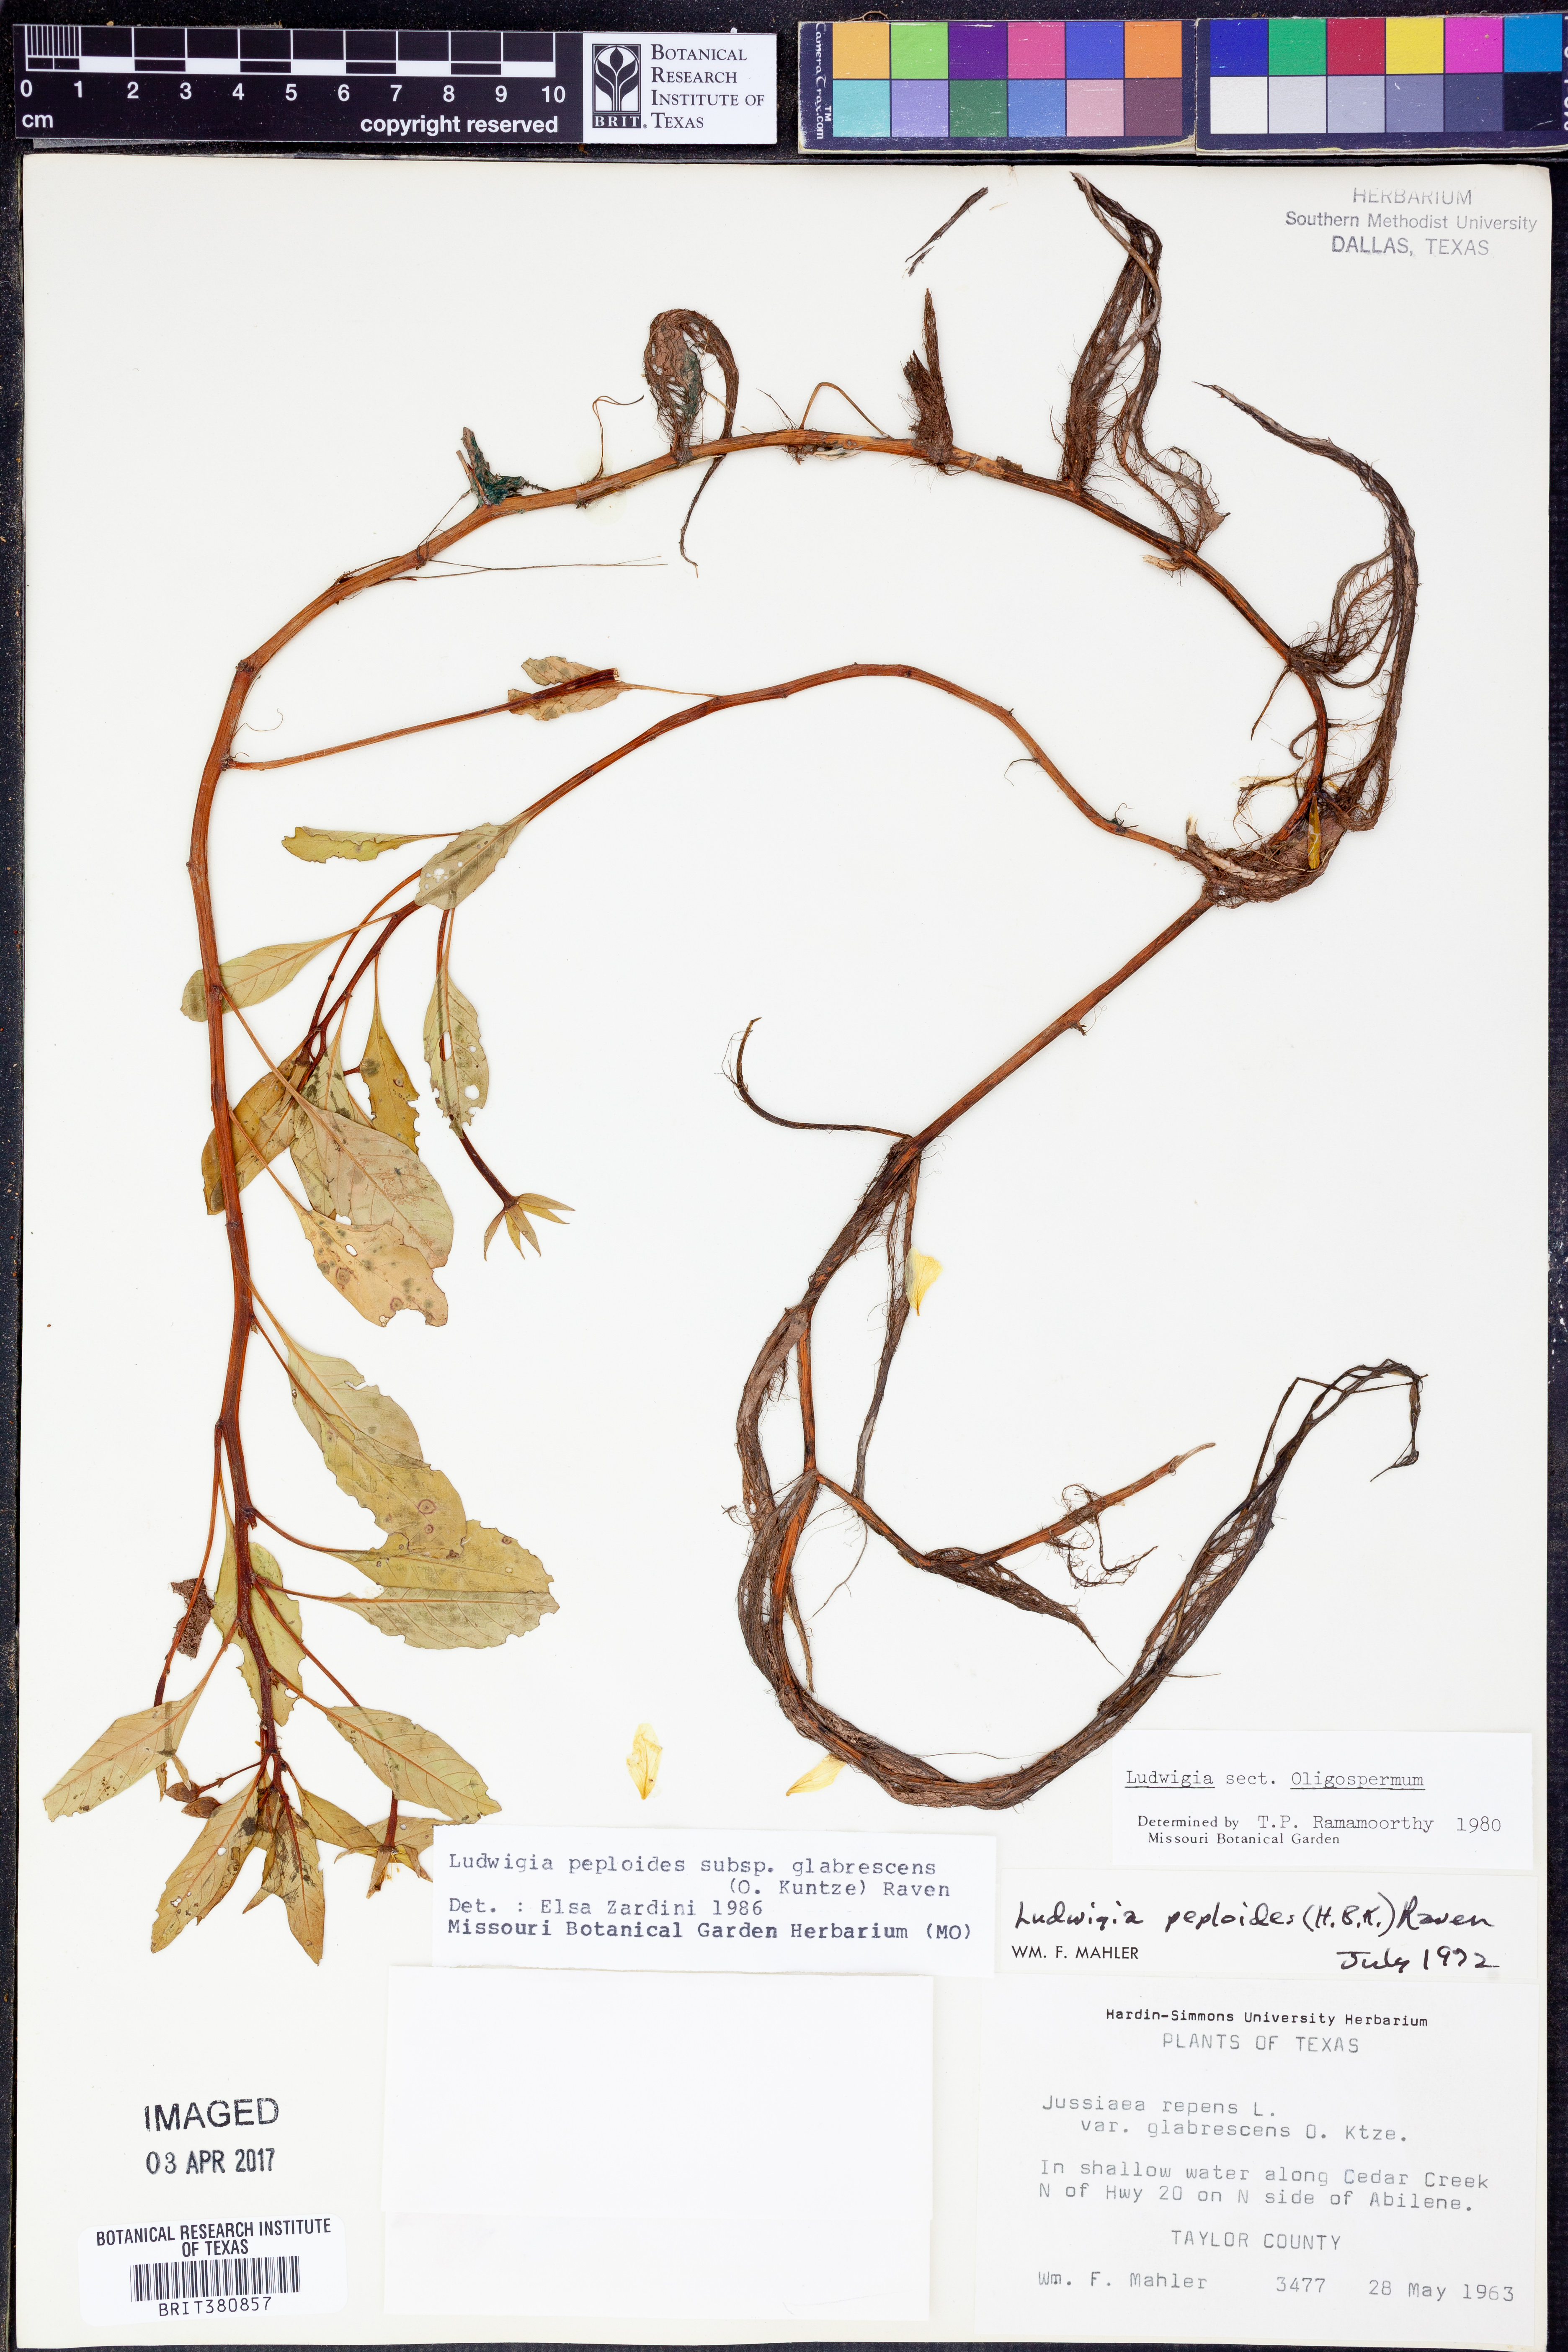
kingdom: Plantae
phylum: Tracheophyta
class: Magnoliopsida
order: Myrtales
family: Onagraceae
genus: Ludwigia
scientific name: Ludwigia peploides
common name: Floating primrose-willow
